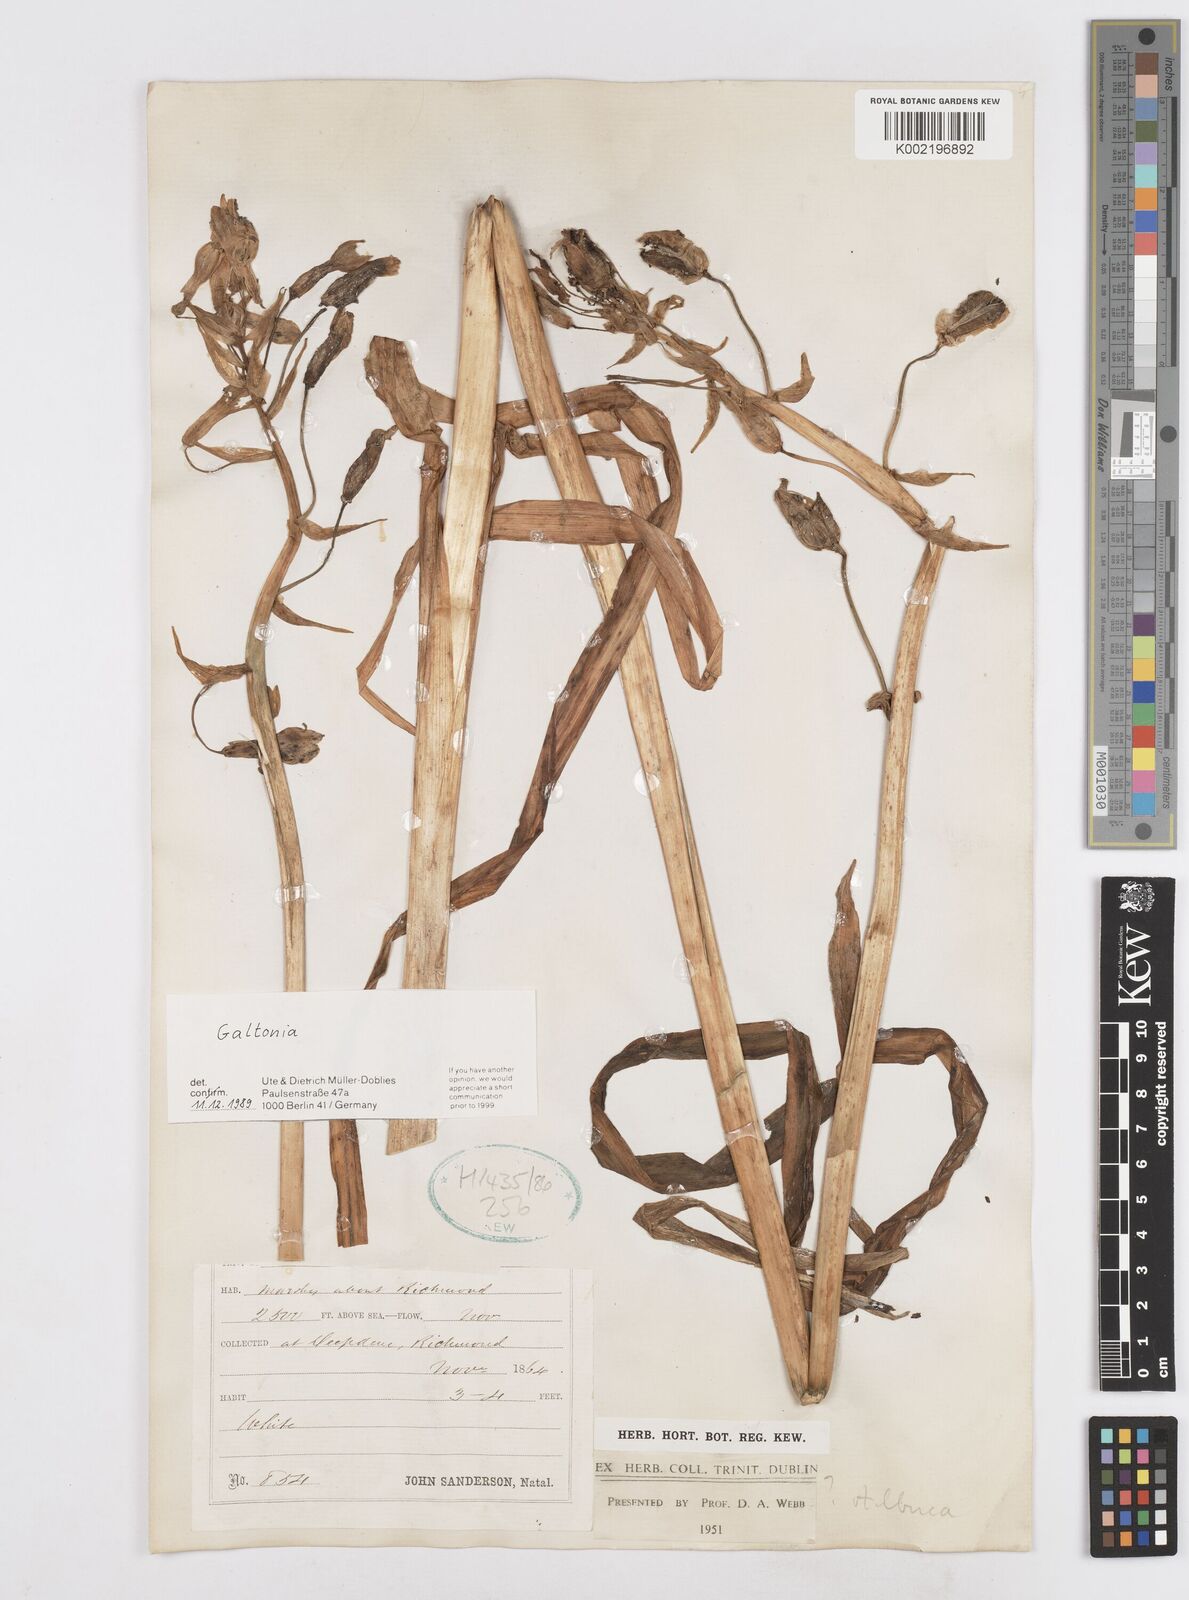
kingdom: Plantae
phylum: Tracheophyta
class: Liliopsida
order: Asparagales
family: Asparagaceae
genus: Ornithogalum
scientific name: Ornithogalum
